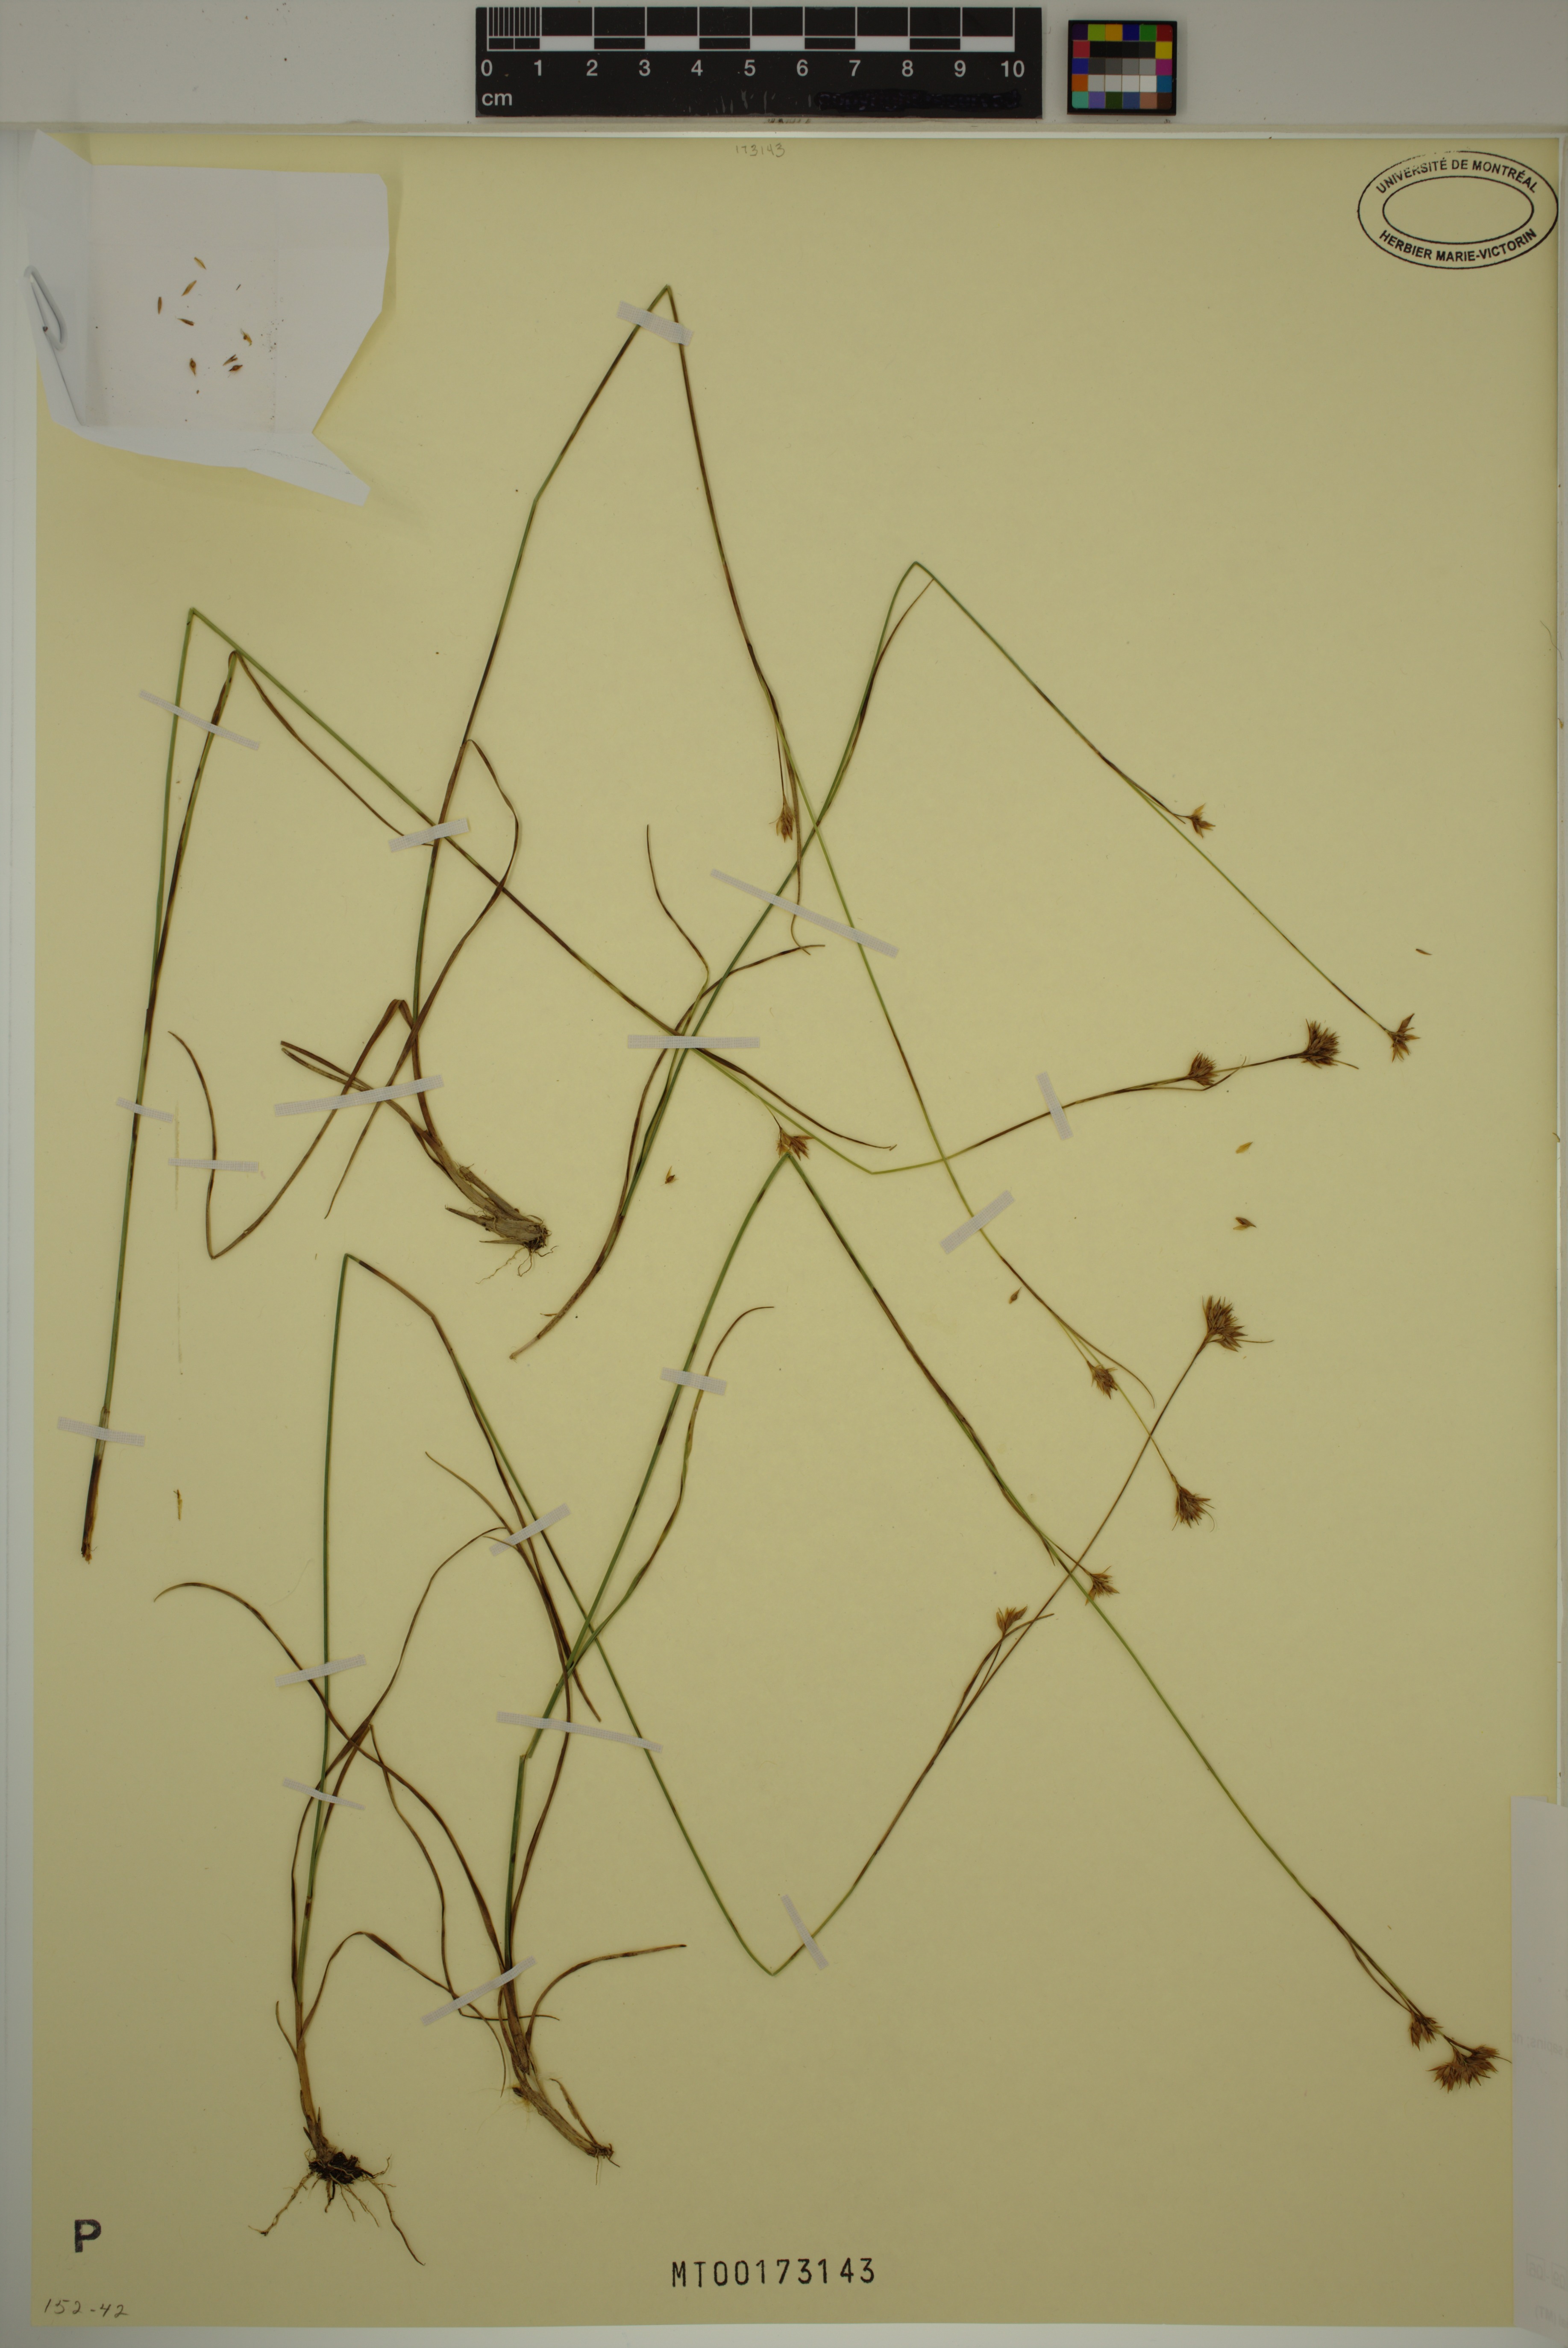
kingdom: Plantae
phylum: Tracheophyta
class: Liliopsida
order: Poales
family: Cyperaceae
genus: Rhynchospora
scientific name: Rhynchospora fusca
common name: Brown beak-sedge
